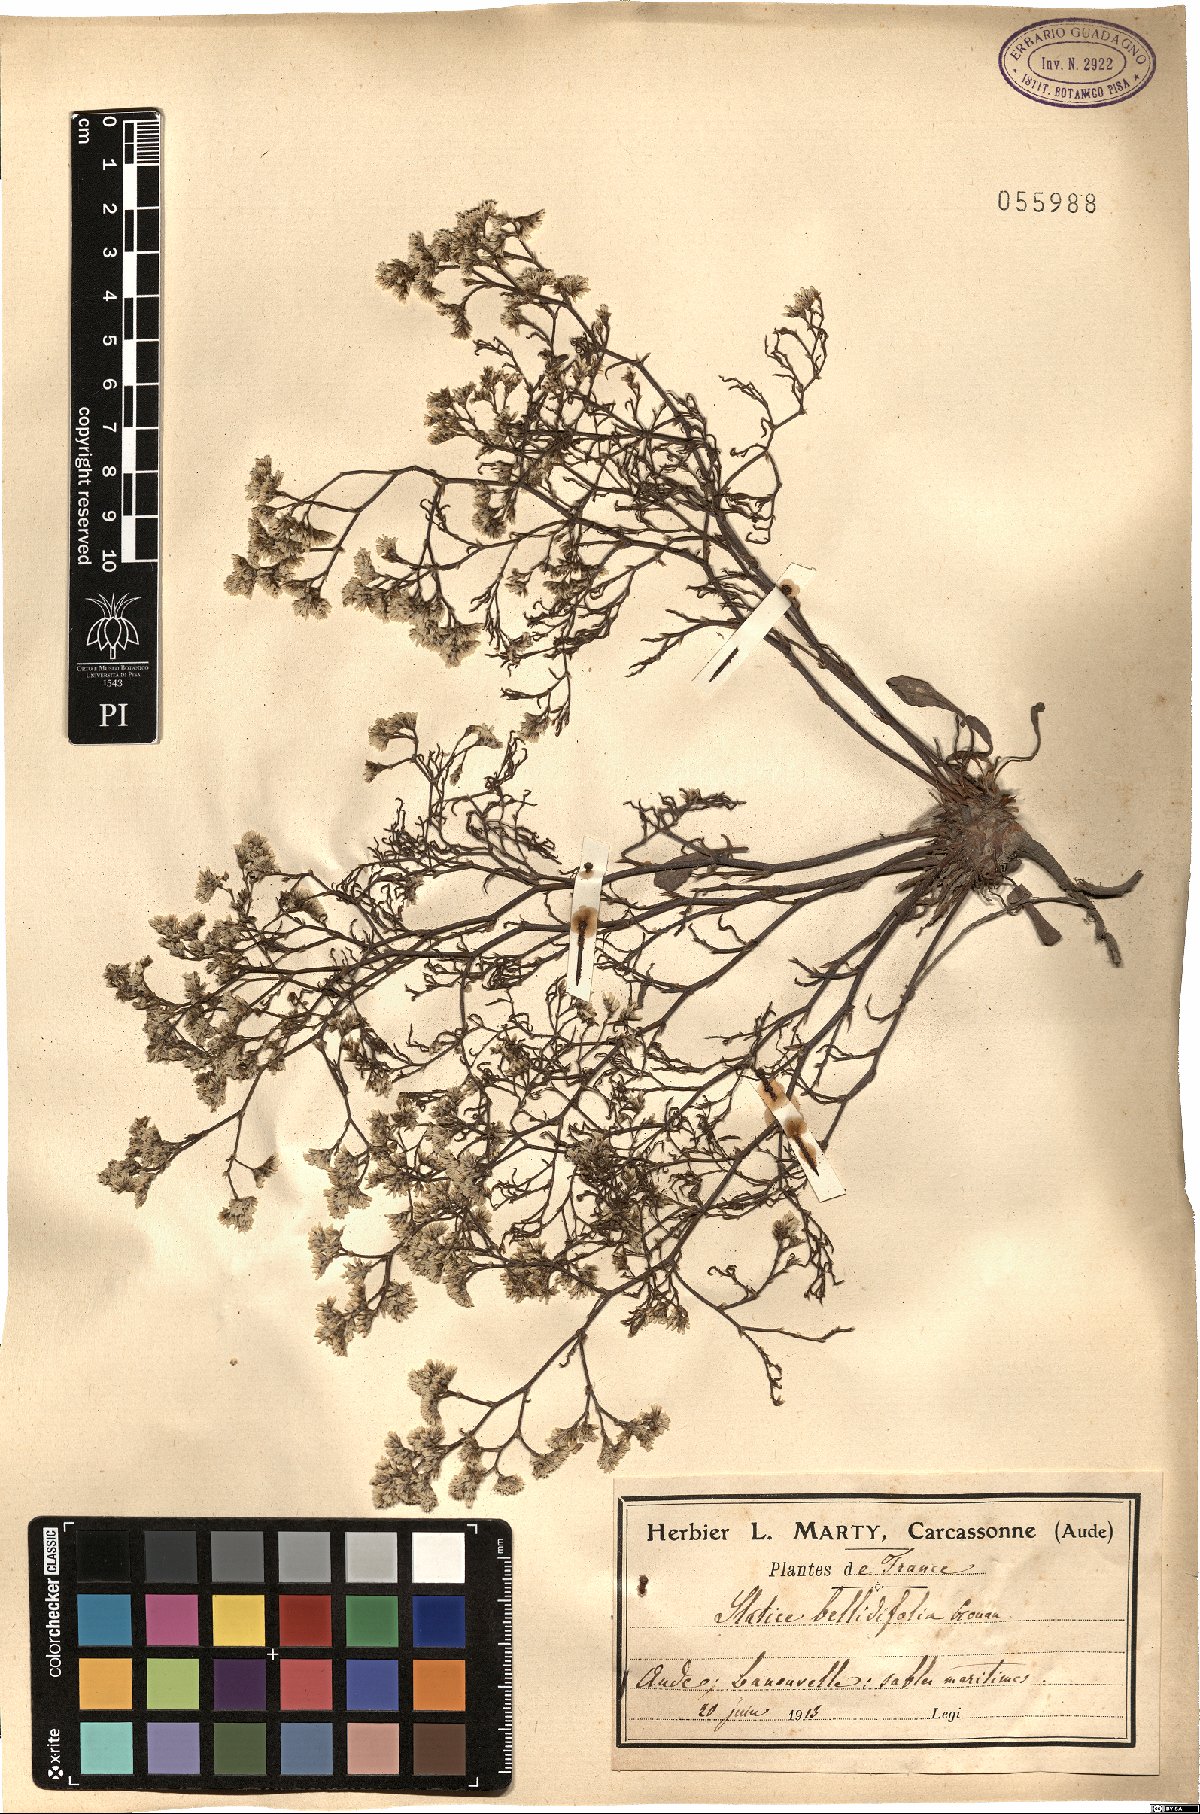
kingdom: Plantae
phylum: Tracheophyta
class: Magnoliopsida
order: Caryophyllales
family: Plumbaginaceae
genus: Limonium
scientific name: Limonium bellidifolium
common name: Matted sea-lavender
